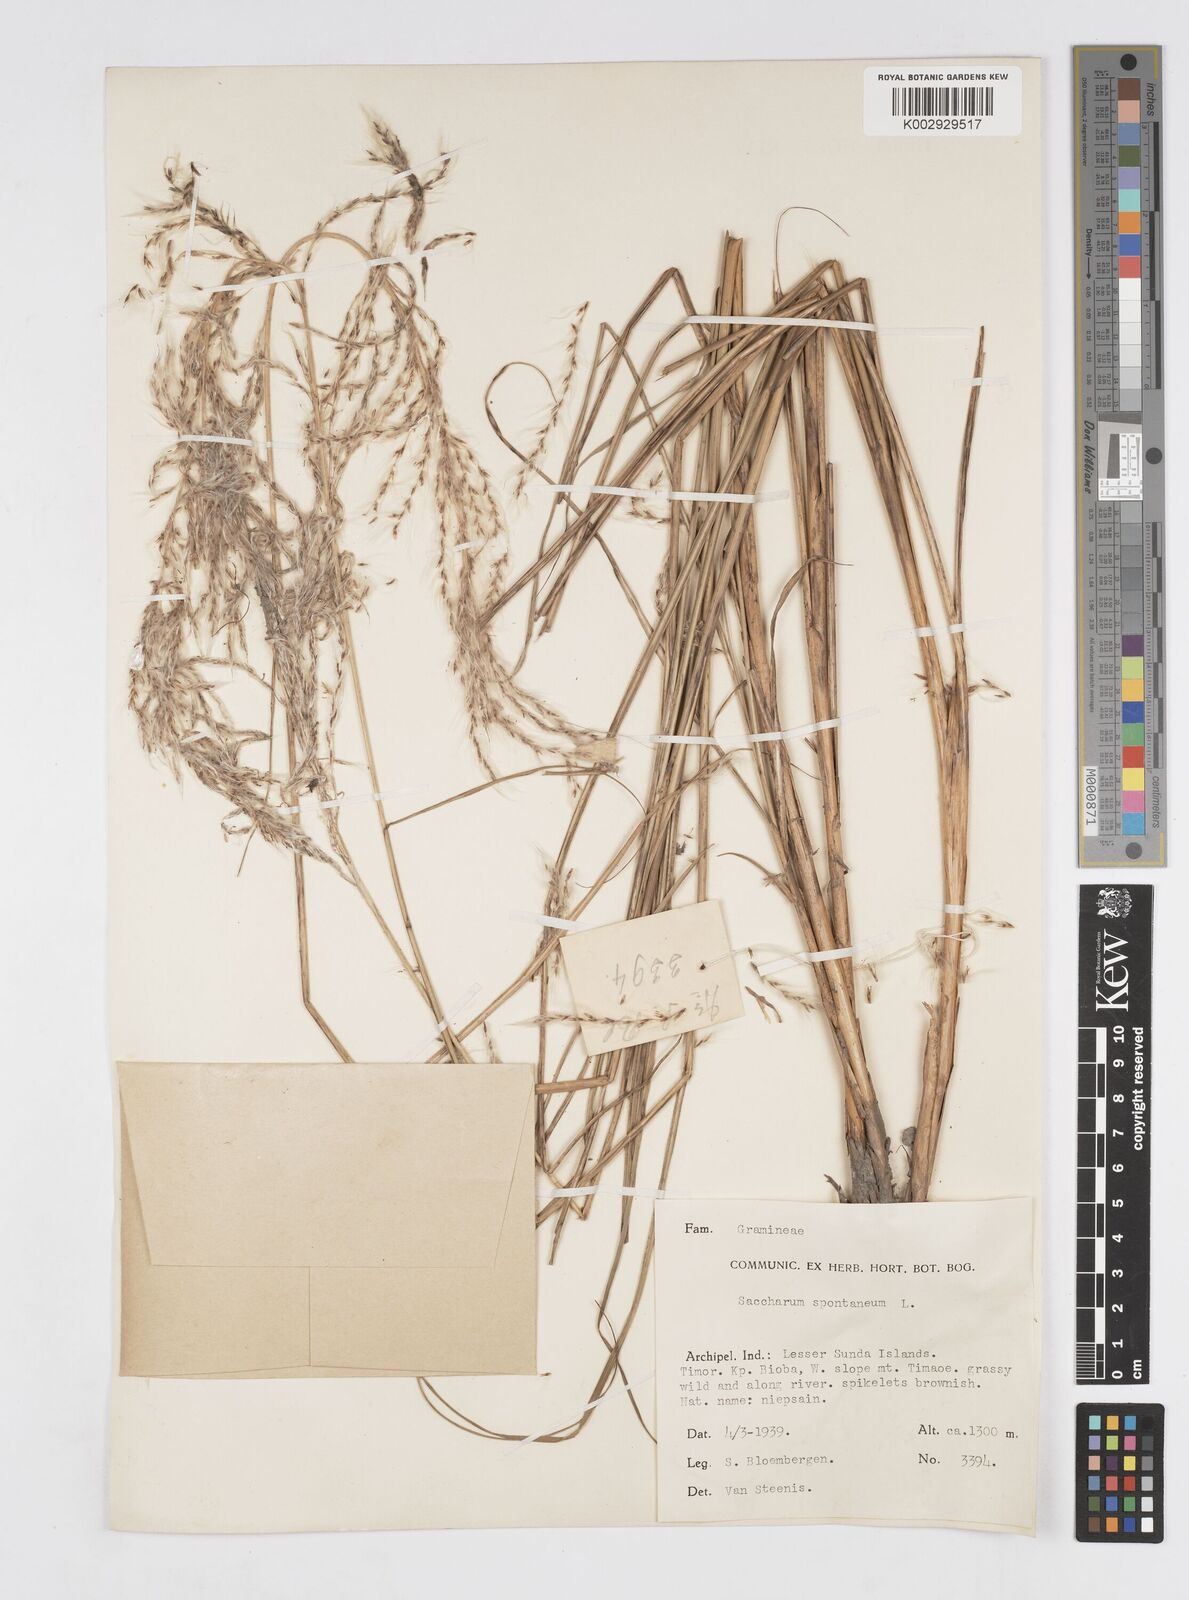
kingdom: Plantae
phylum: Tracheophyta
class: Liliopsida
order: Poales
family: Poaceae
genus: Saccharum
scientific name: Saccharum spontaneum
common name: Wild sugarcane
